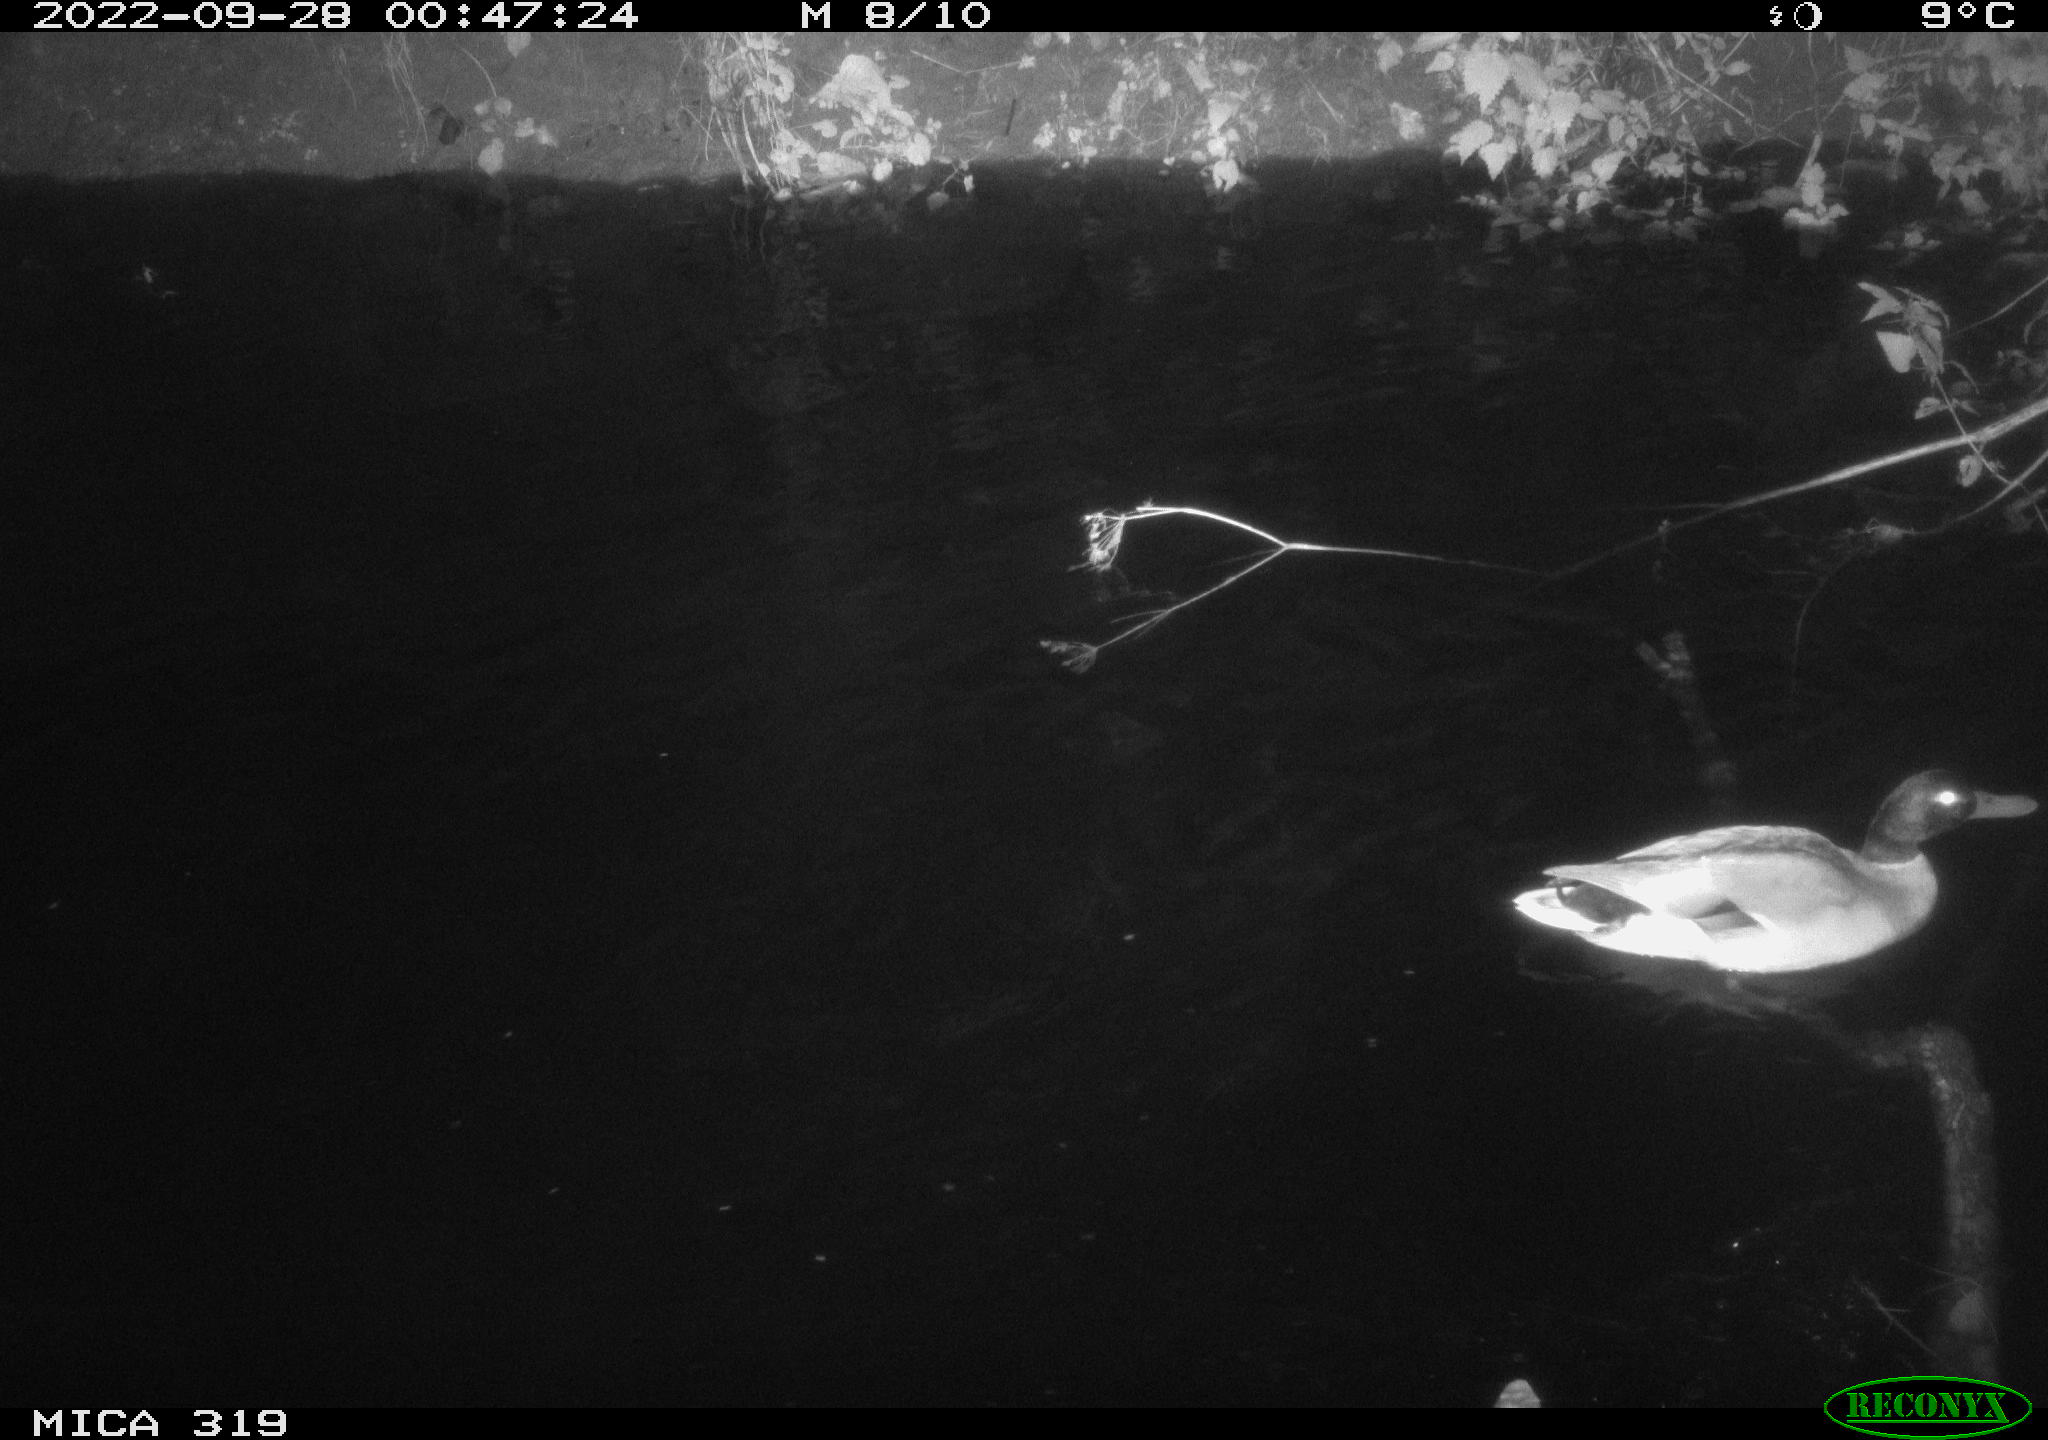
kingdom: Animalia
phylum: Chordata
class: Aves
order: Anseriformes
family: Anatidae
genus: Anas
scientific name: Anas
